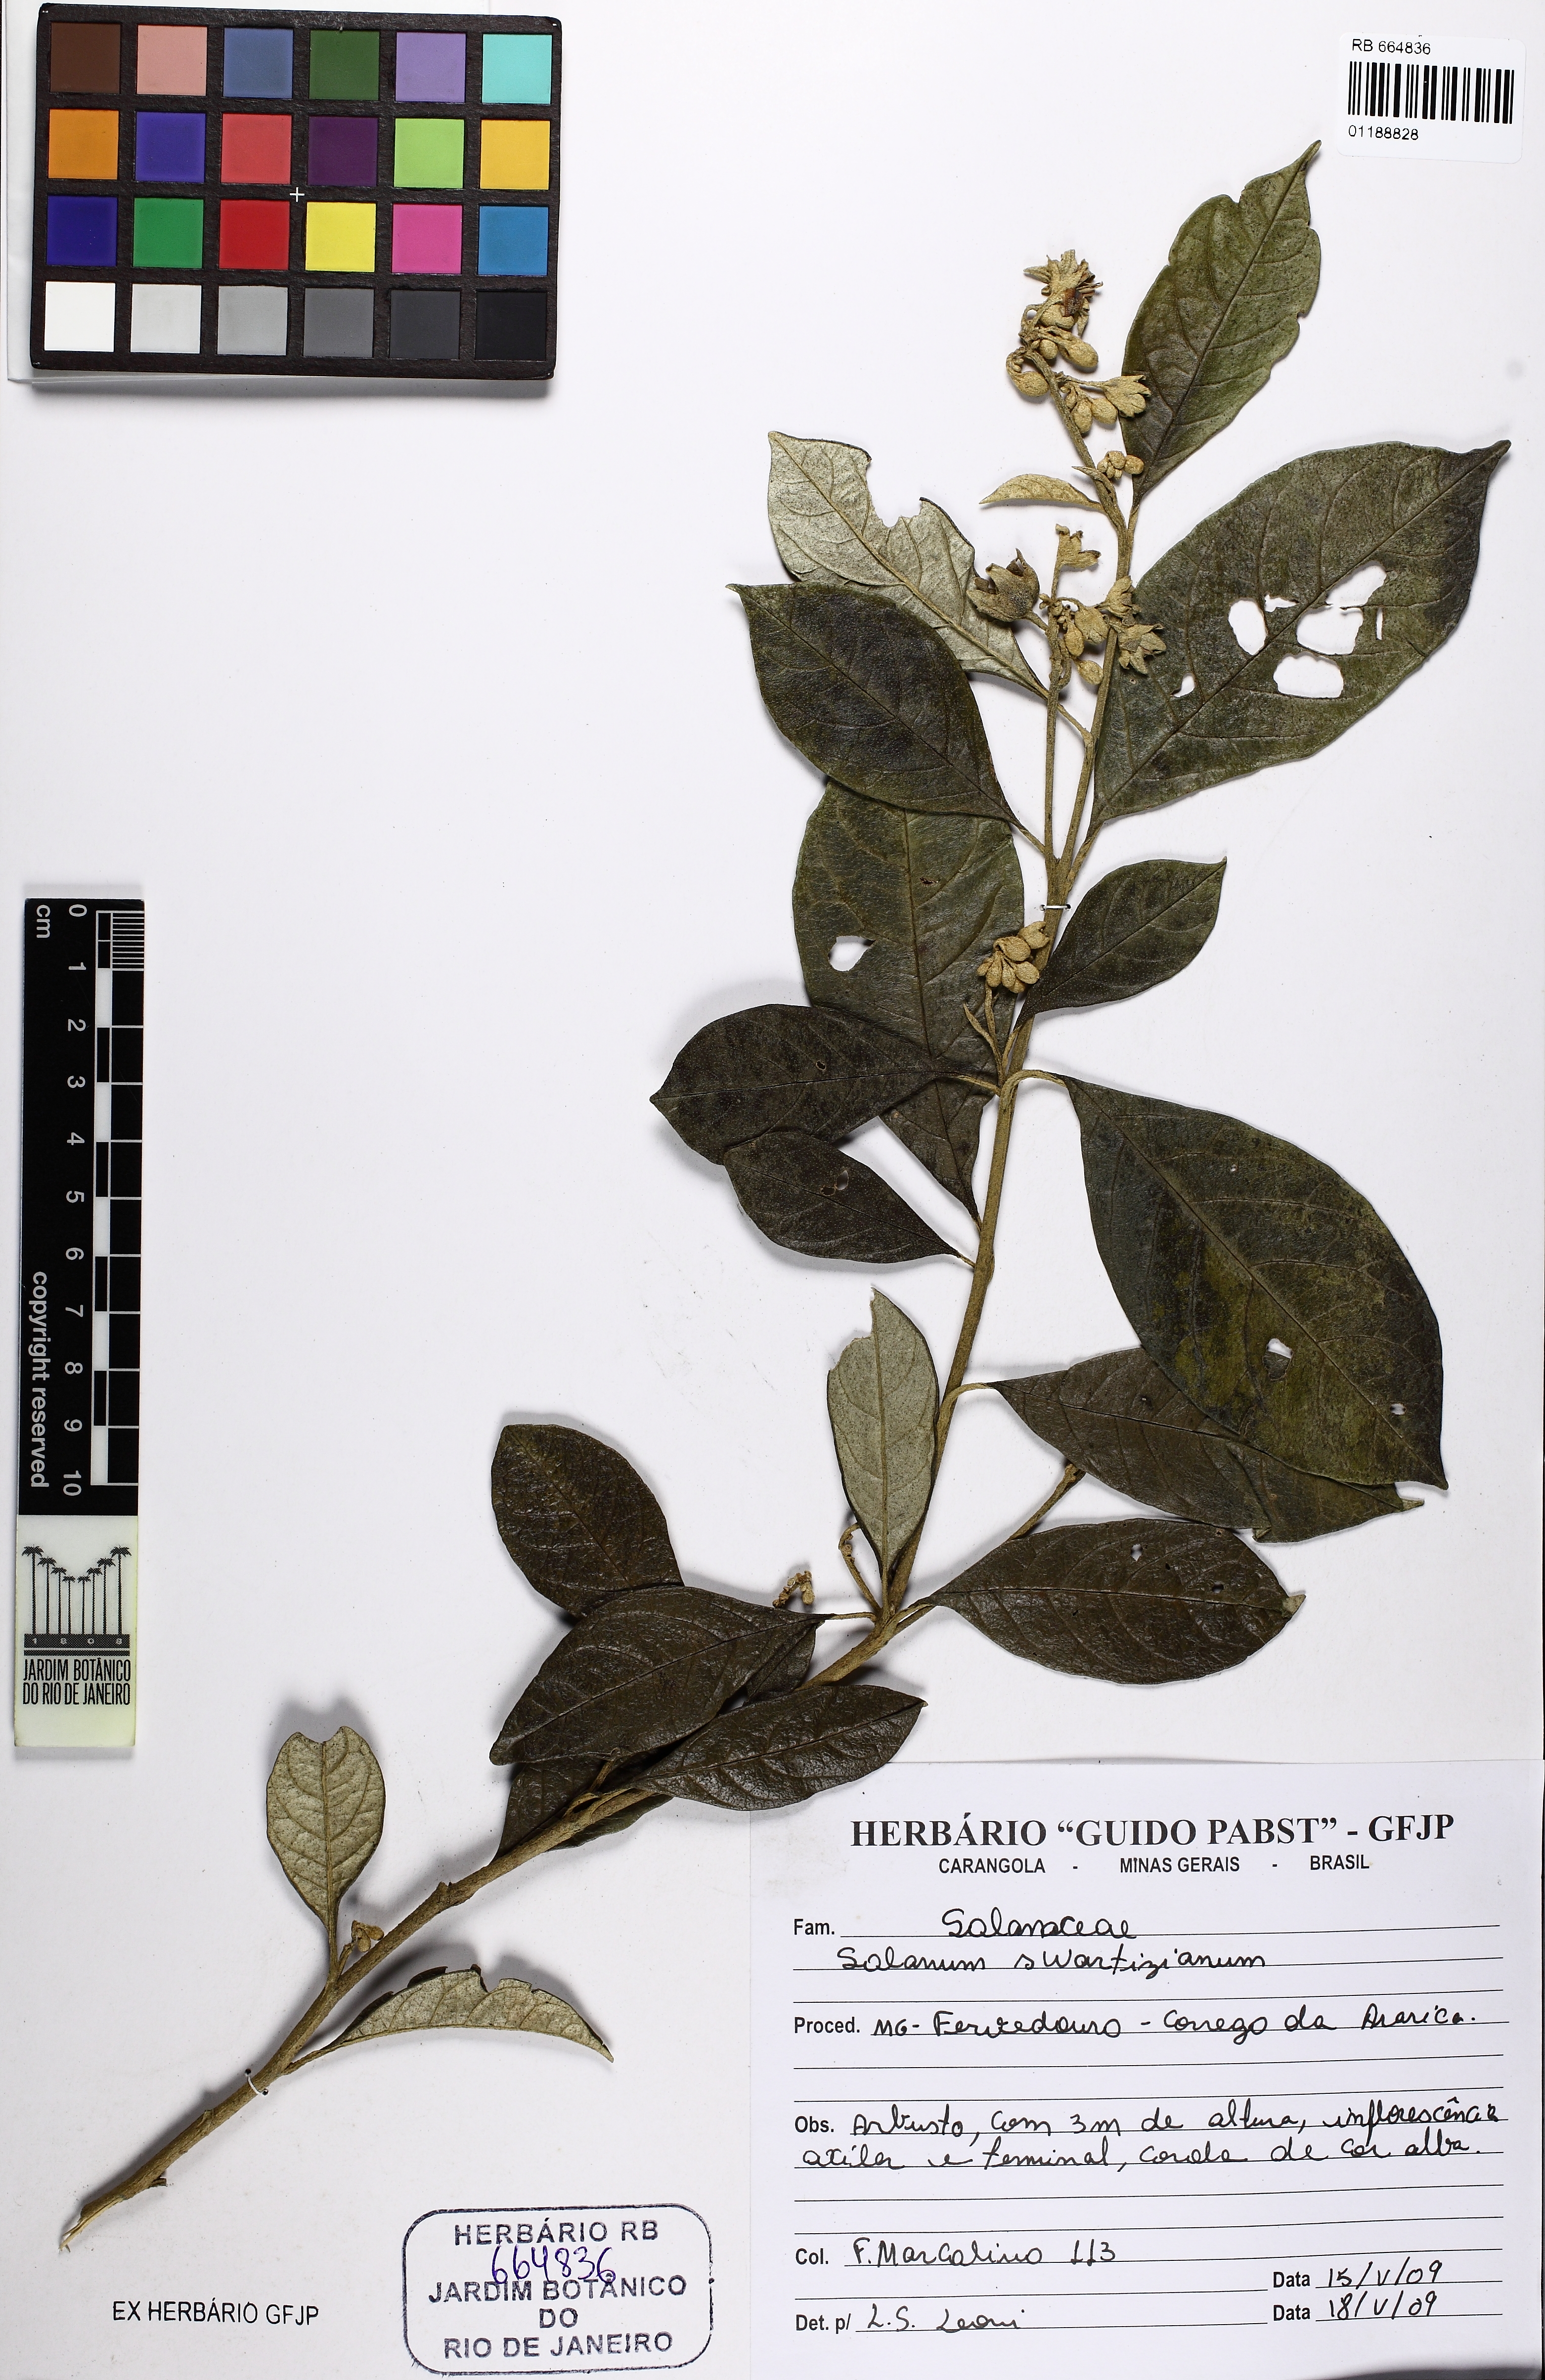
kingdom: Plantae
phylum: Tracheophyta
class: Magnoliopsida
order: Solanales
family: Solanaceae
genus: Solanum
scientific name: Solanum swartzianum
